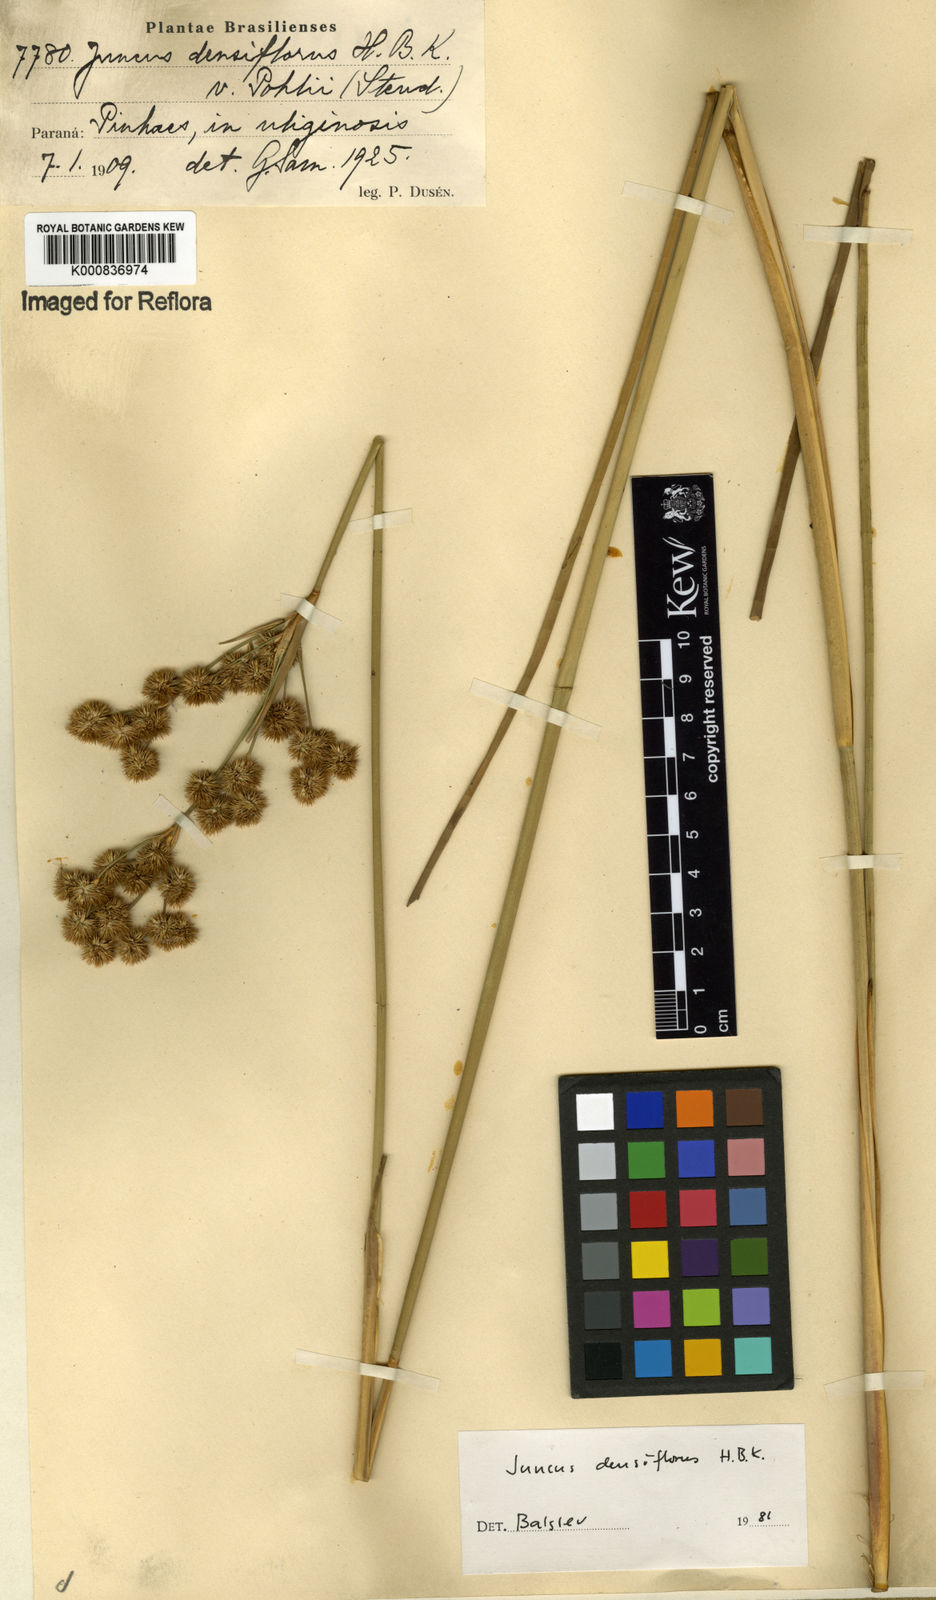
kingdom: Plantae
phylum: Tracheophyta
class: Liliopsida
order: Poales
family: Juncaceae
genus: Juncus
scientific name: Juncus densiflorus
